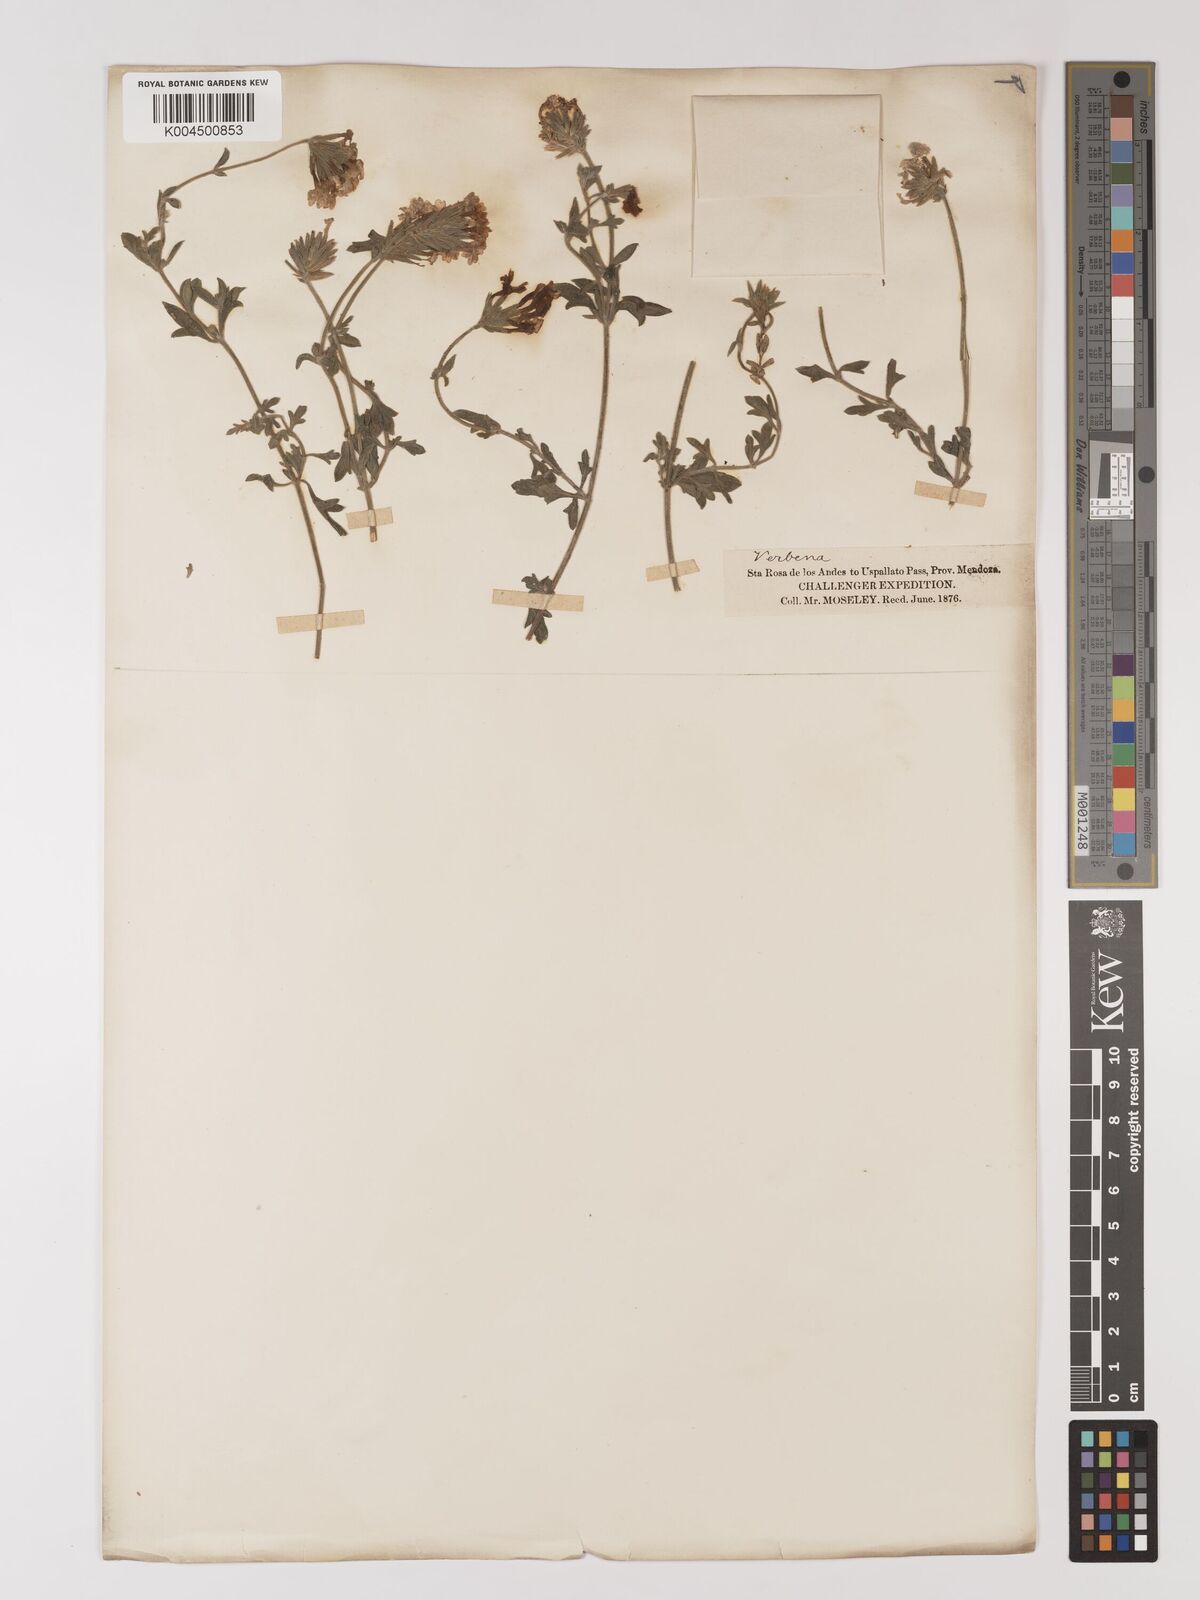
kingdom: Plantae
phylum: Tracheophyta
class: Magnoliopsida
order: Lamiales
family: Verbenaceae
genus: Verbena
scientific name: Verbena
